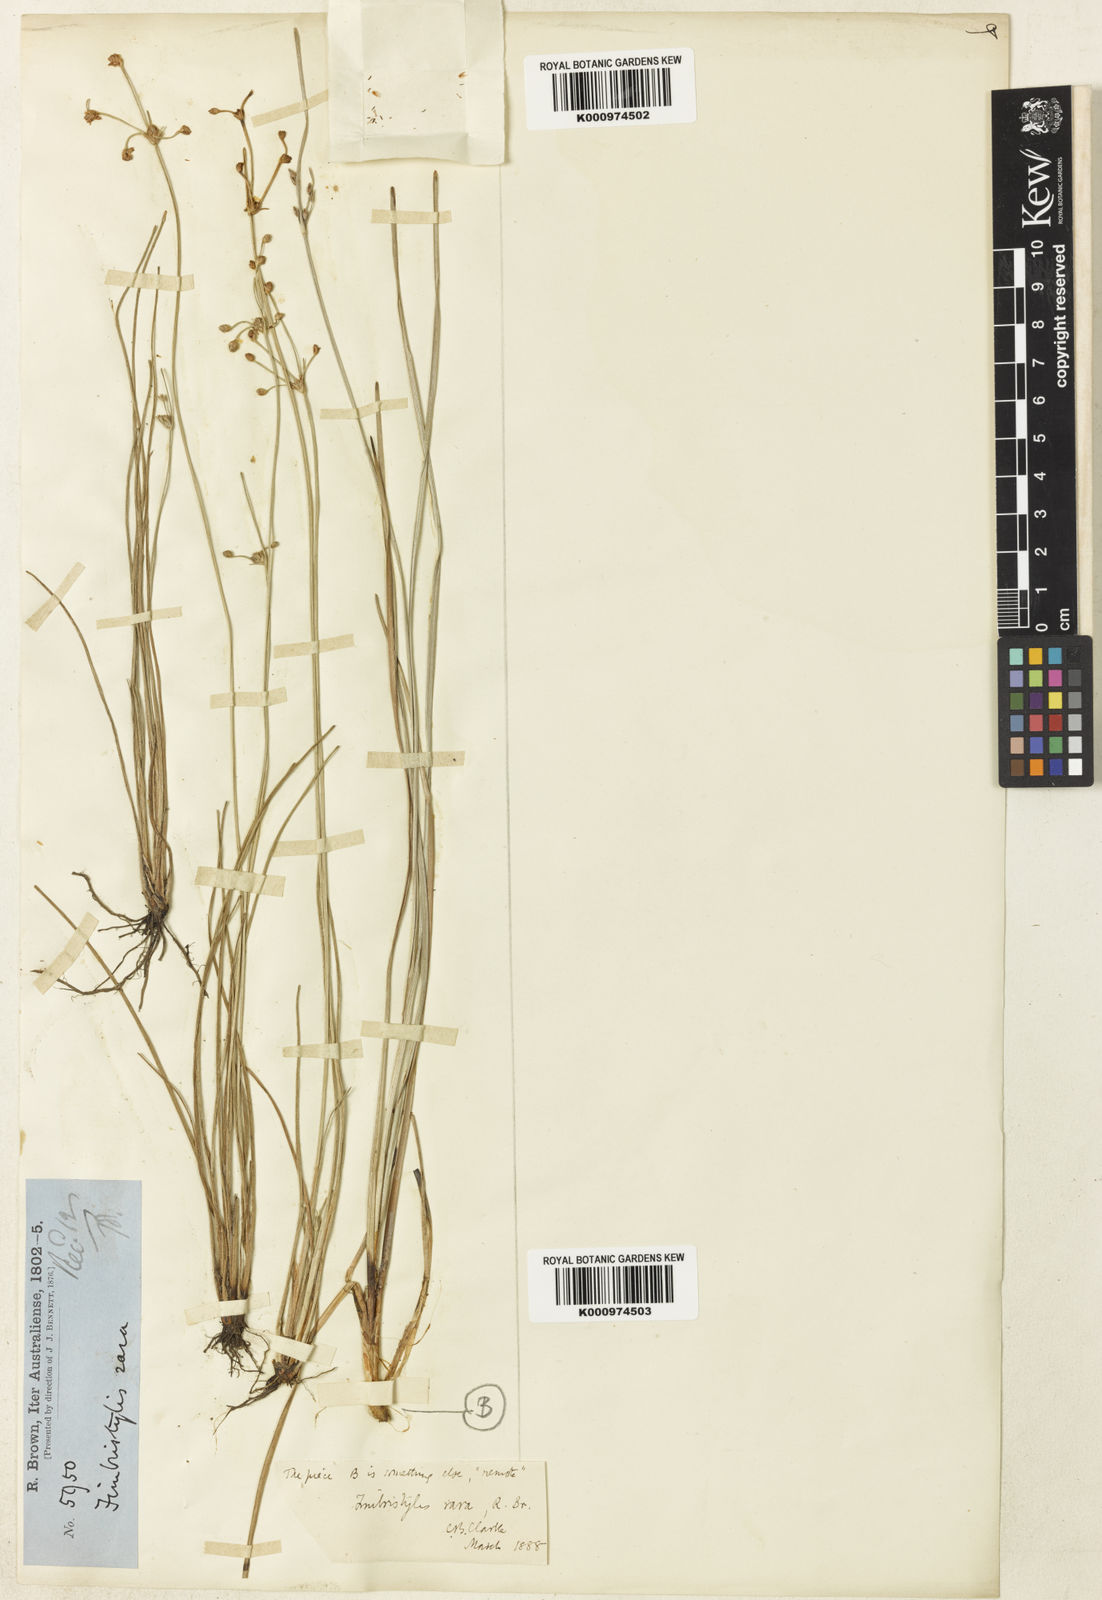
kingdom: Plantae
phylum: Tracheophyta
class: Liliopsida
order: Poales
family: Cyperaceae
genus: Fimbristylis
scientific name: Fimbristylis rara
